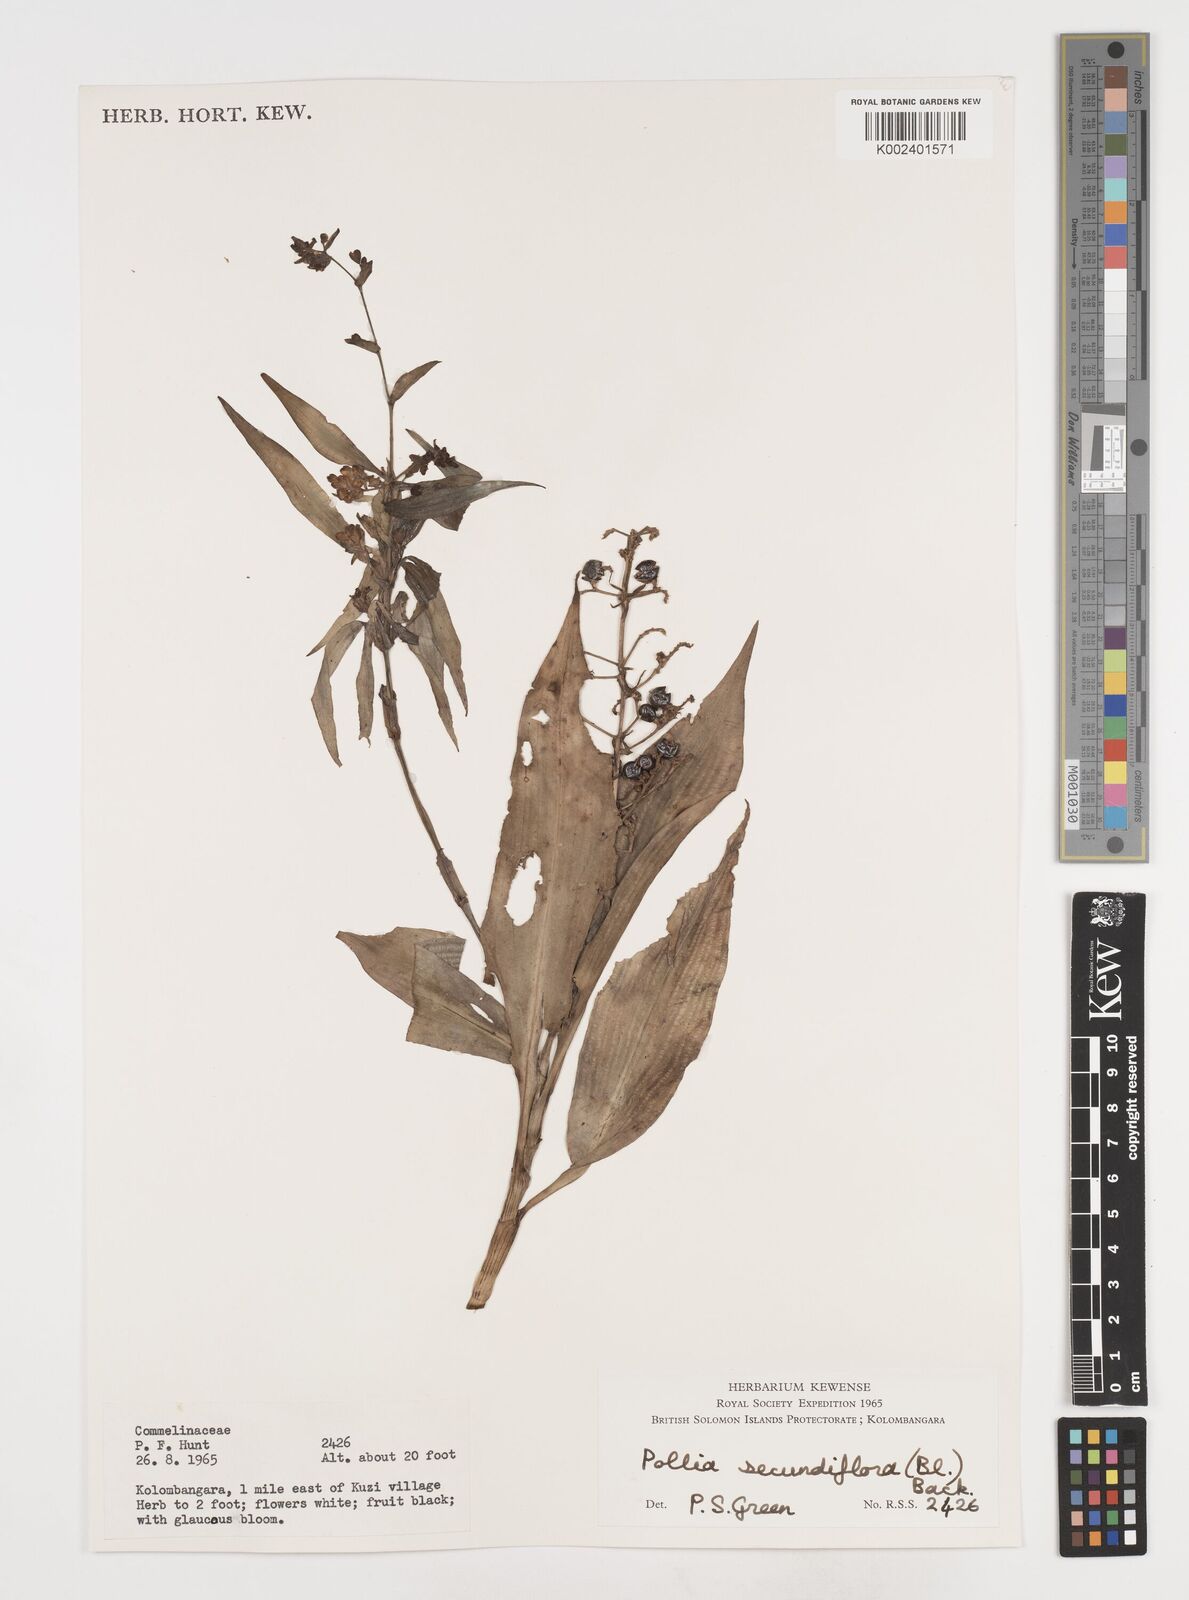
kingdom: Plantae
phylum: Tracheophyta
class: Liliopsida
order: Commelinales
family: Commelinaceae
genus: Pollia
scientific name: Pollia secundiflora
